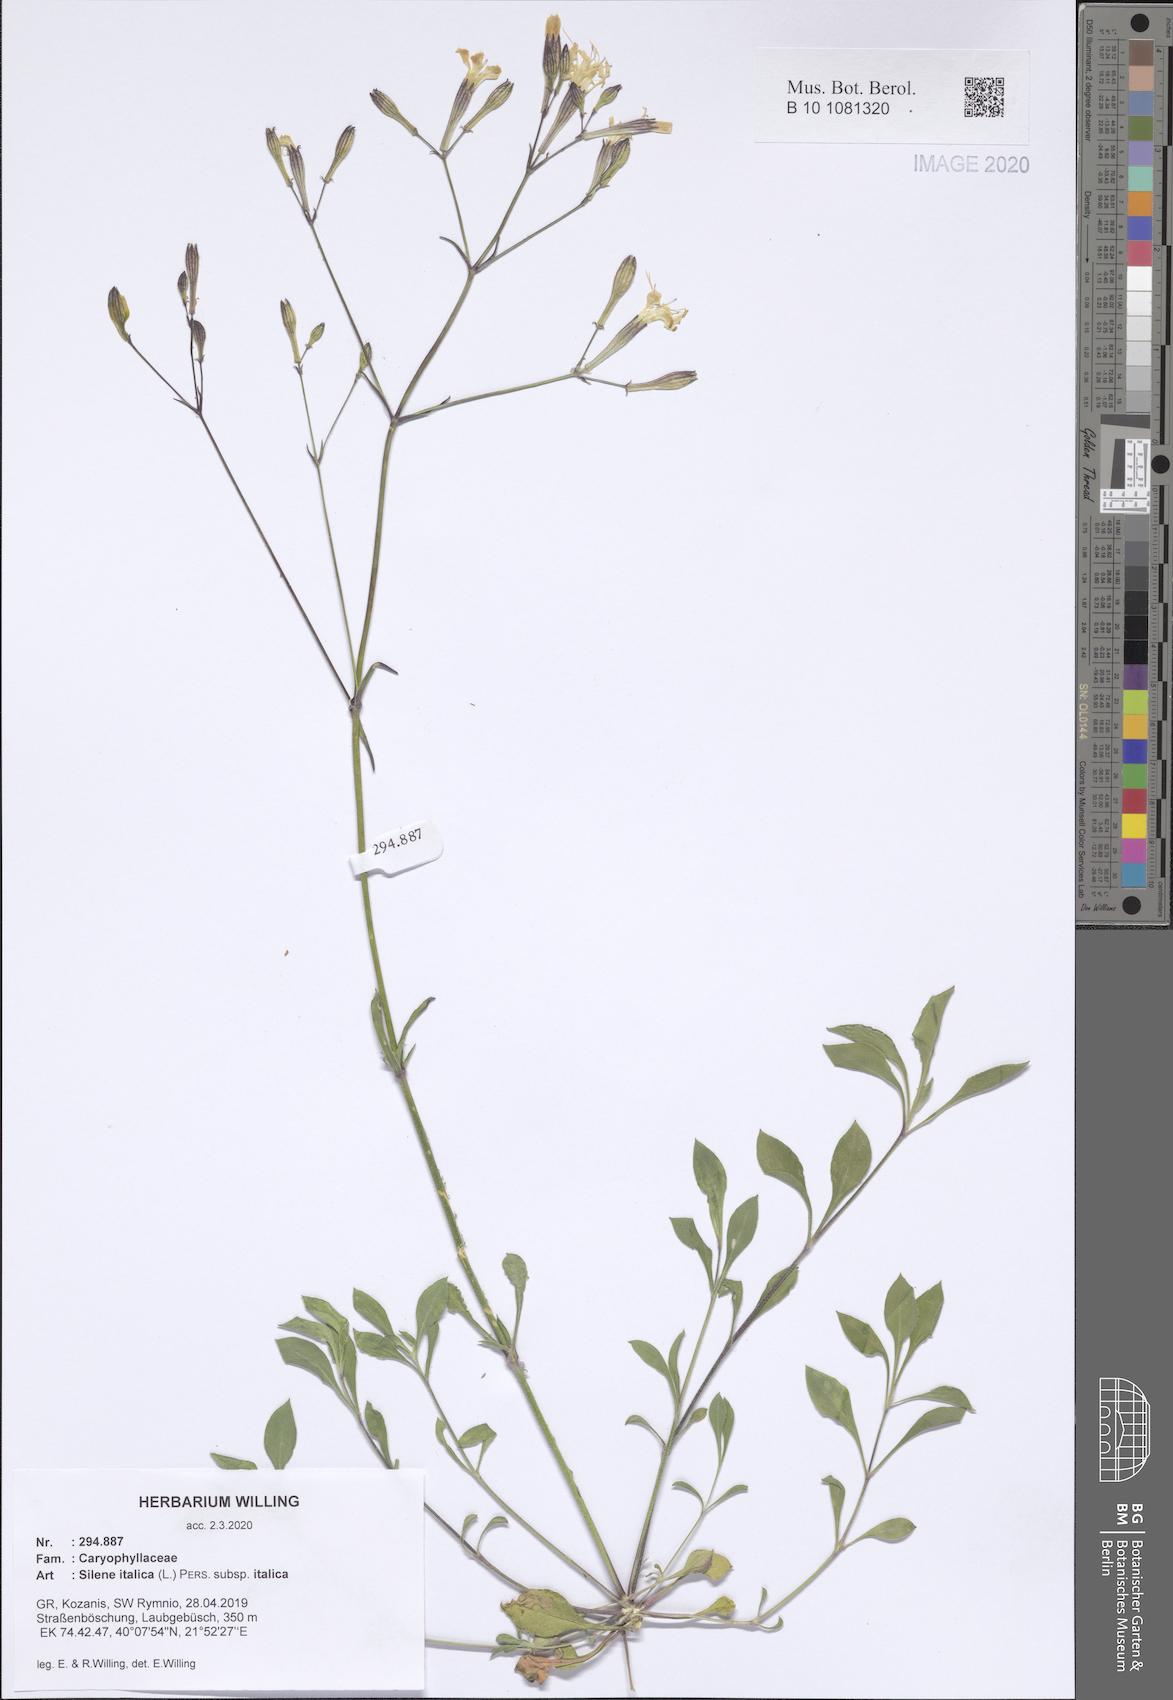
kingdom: Plantae
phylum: Tracheophyta
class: Magnoliopsida
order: Caryophyllales
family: Caryophyllaceae
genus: Silene
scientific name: Silene italica
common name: Italian catchfly
